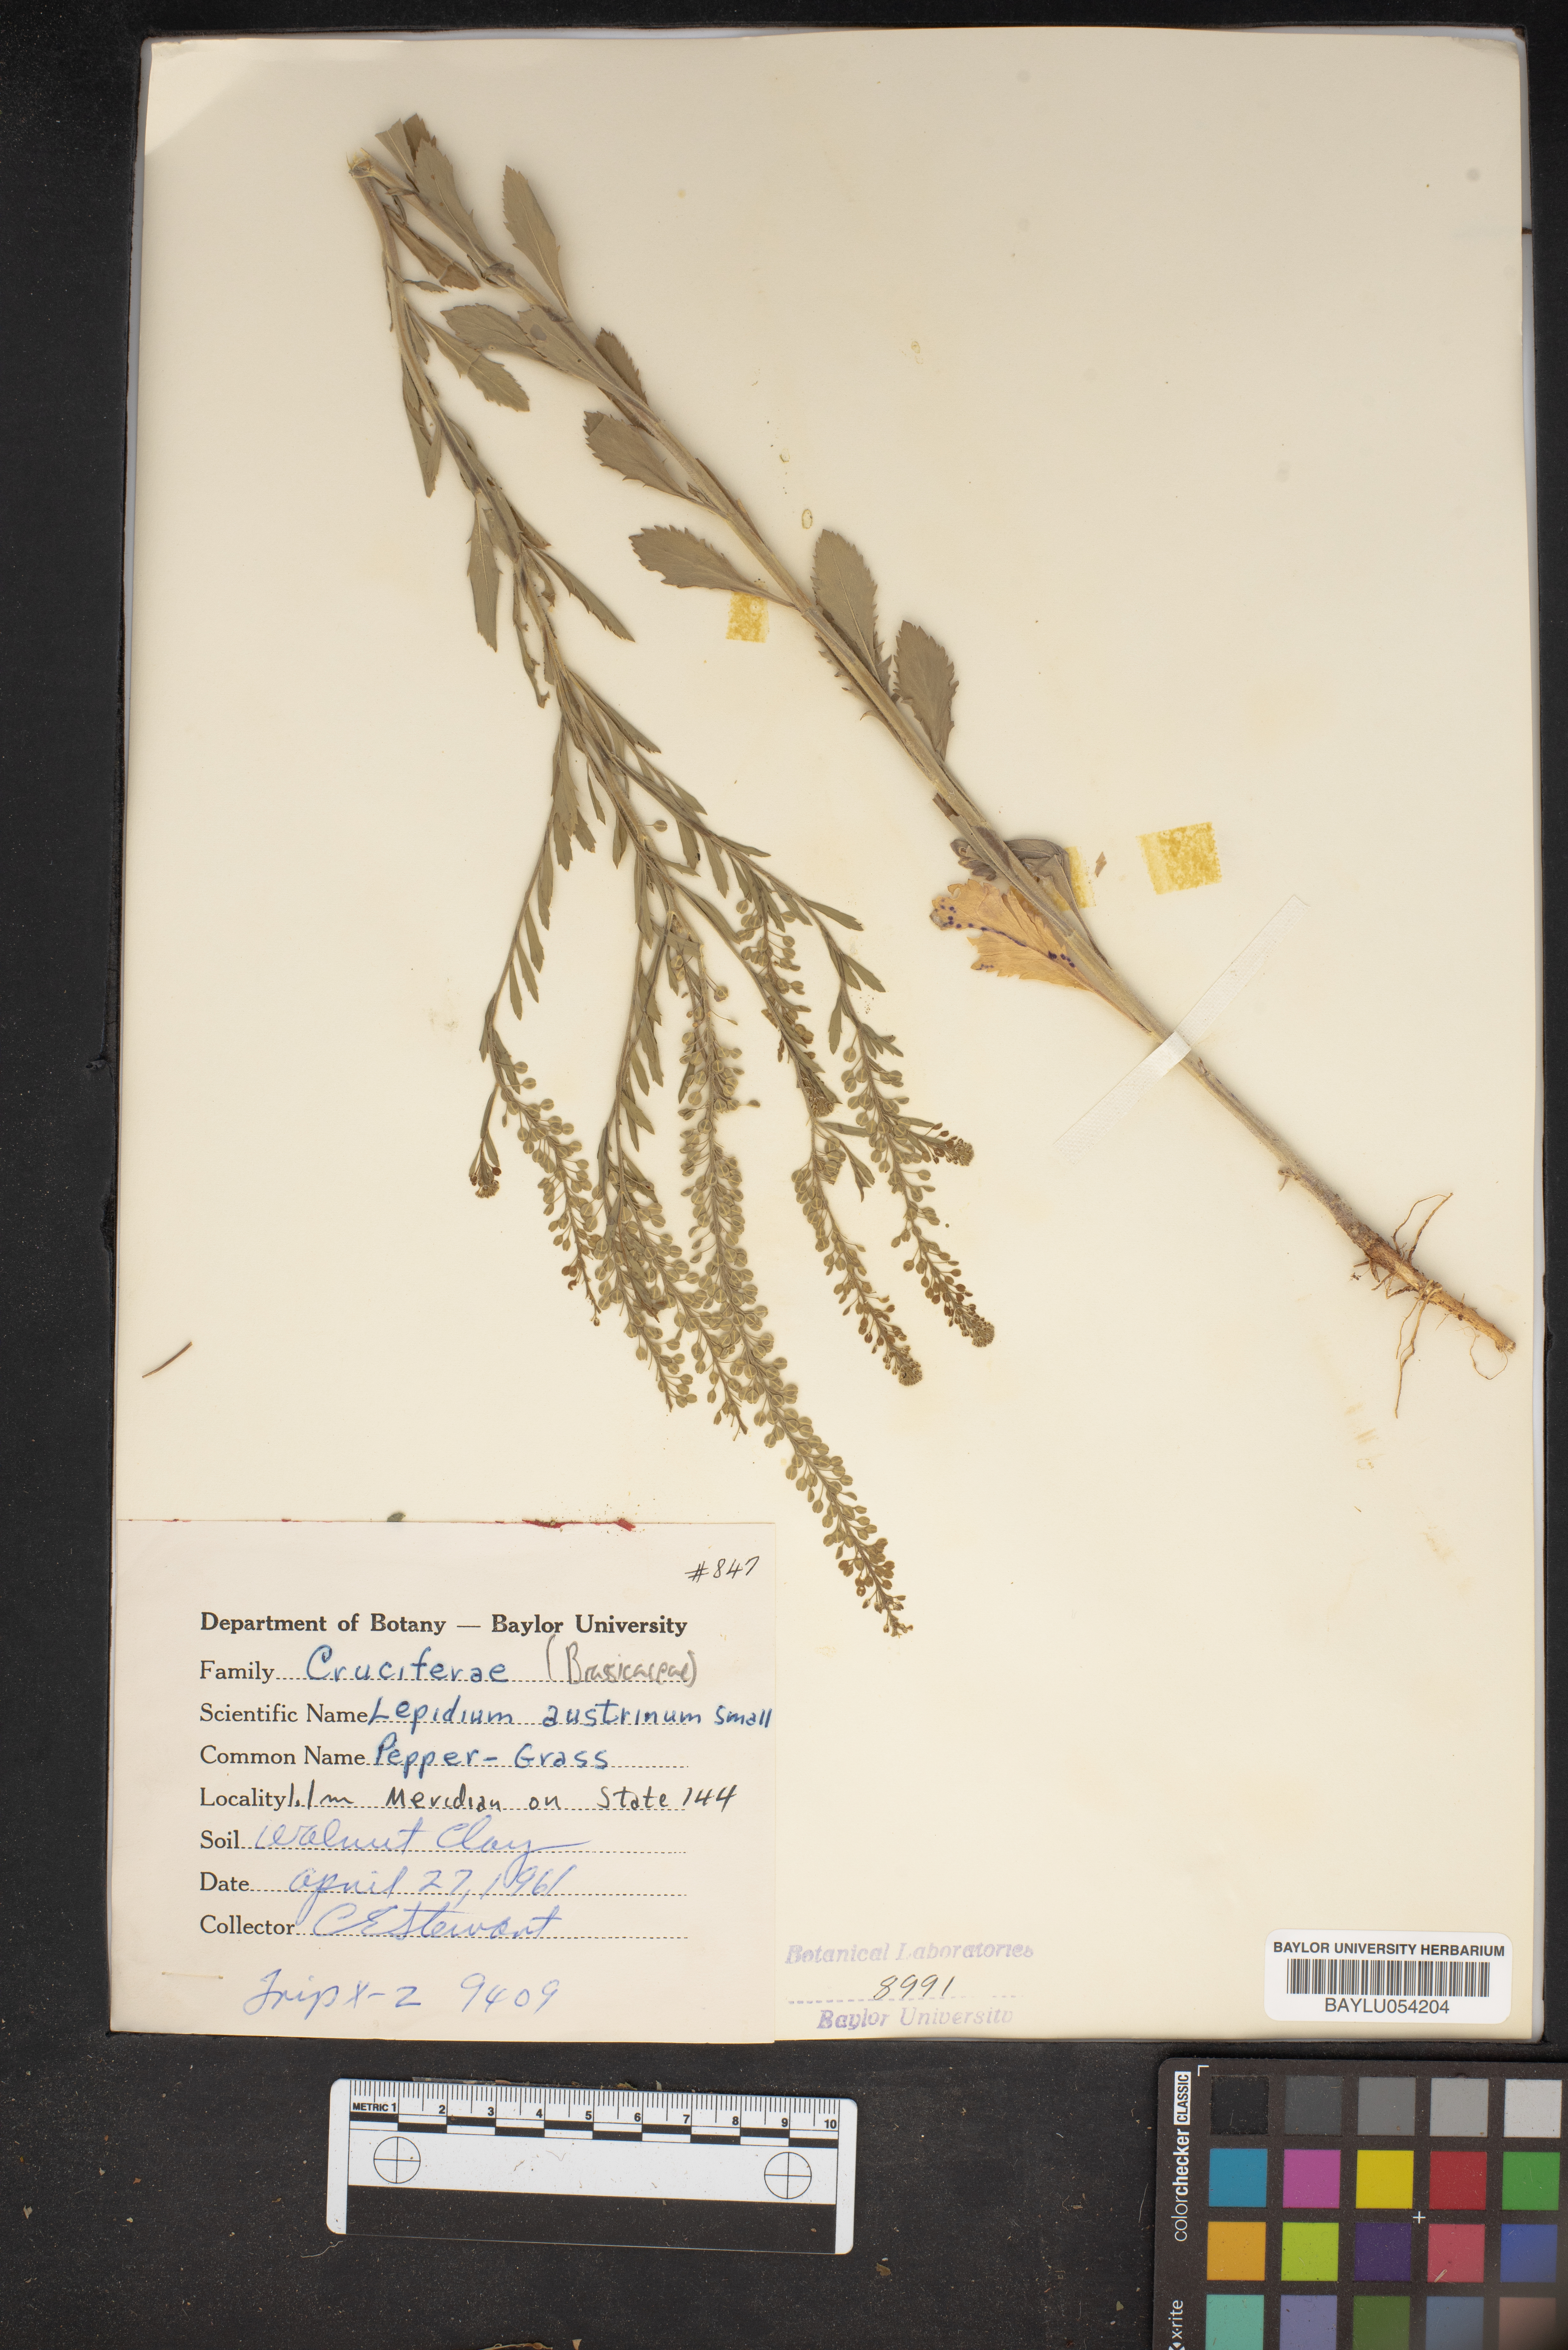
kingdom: Plantae
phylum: Tracheophyta
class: Magnoliopsida
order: Brassicales
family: Brassicaceae
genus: Lepidium
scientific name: Lepidium austrinum
